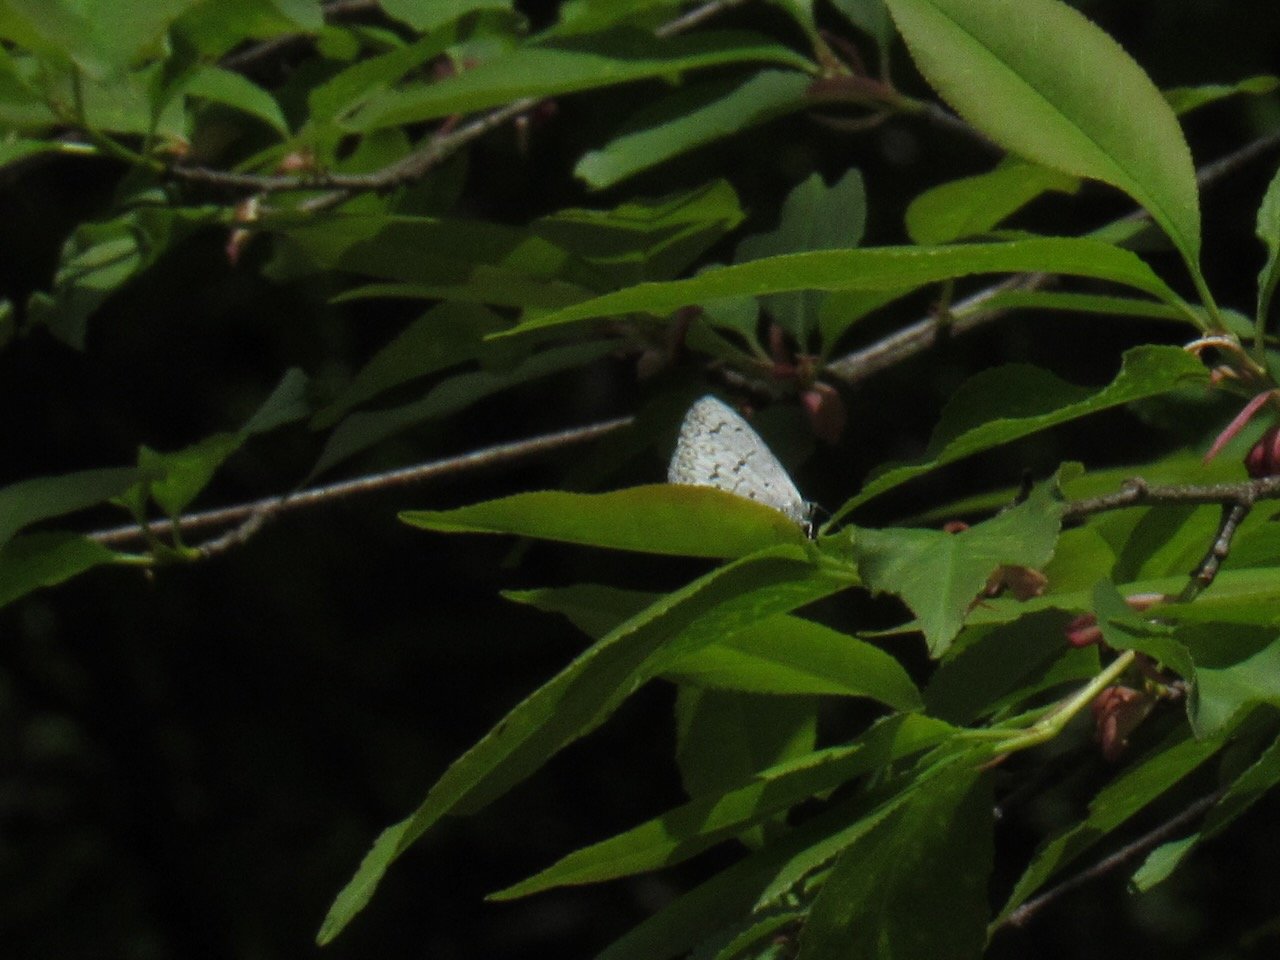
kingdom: Animalia
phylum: Arthropoda
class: Insecta
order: Lepidoptera
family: Lycaenidae
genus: Celastrina
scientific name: Celastrina lucia
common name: Northern Spring Azure
